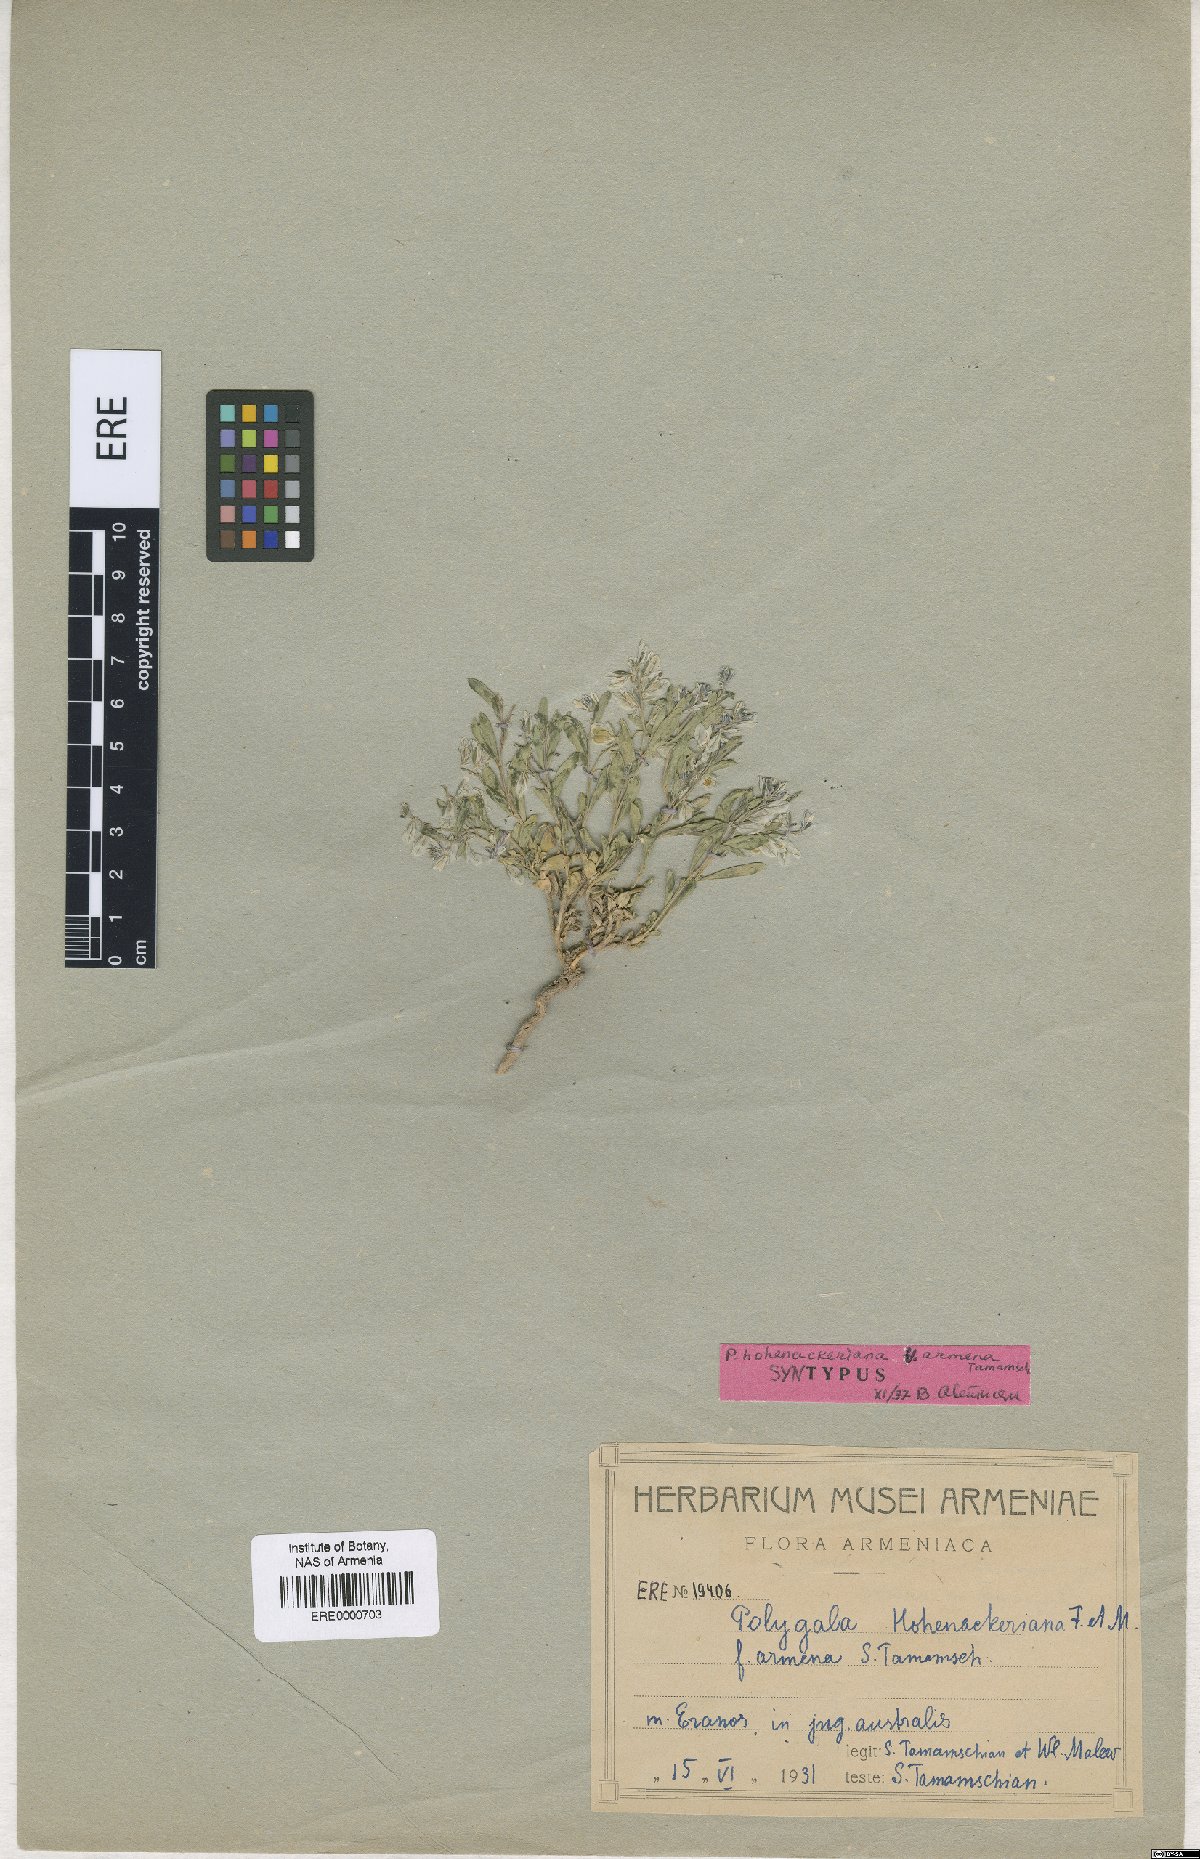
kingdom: Plantae
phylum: Tracheophyta
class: Magnoliopsida
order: Fabales
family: Polygalaceae
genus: Polygala
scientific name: Polygala hohenackeriana
